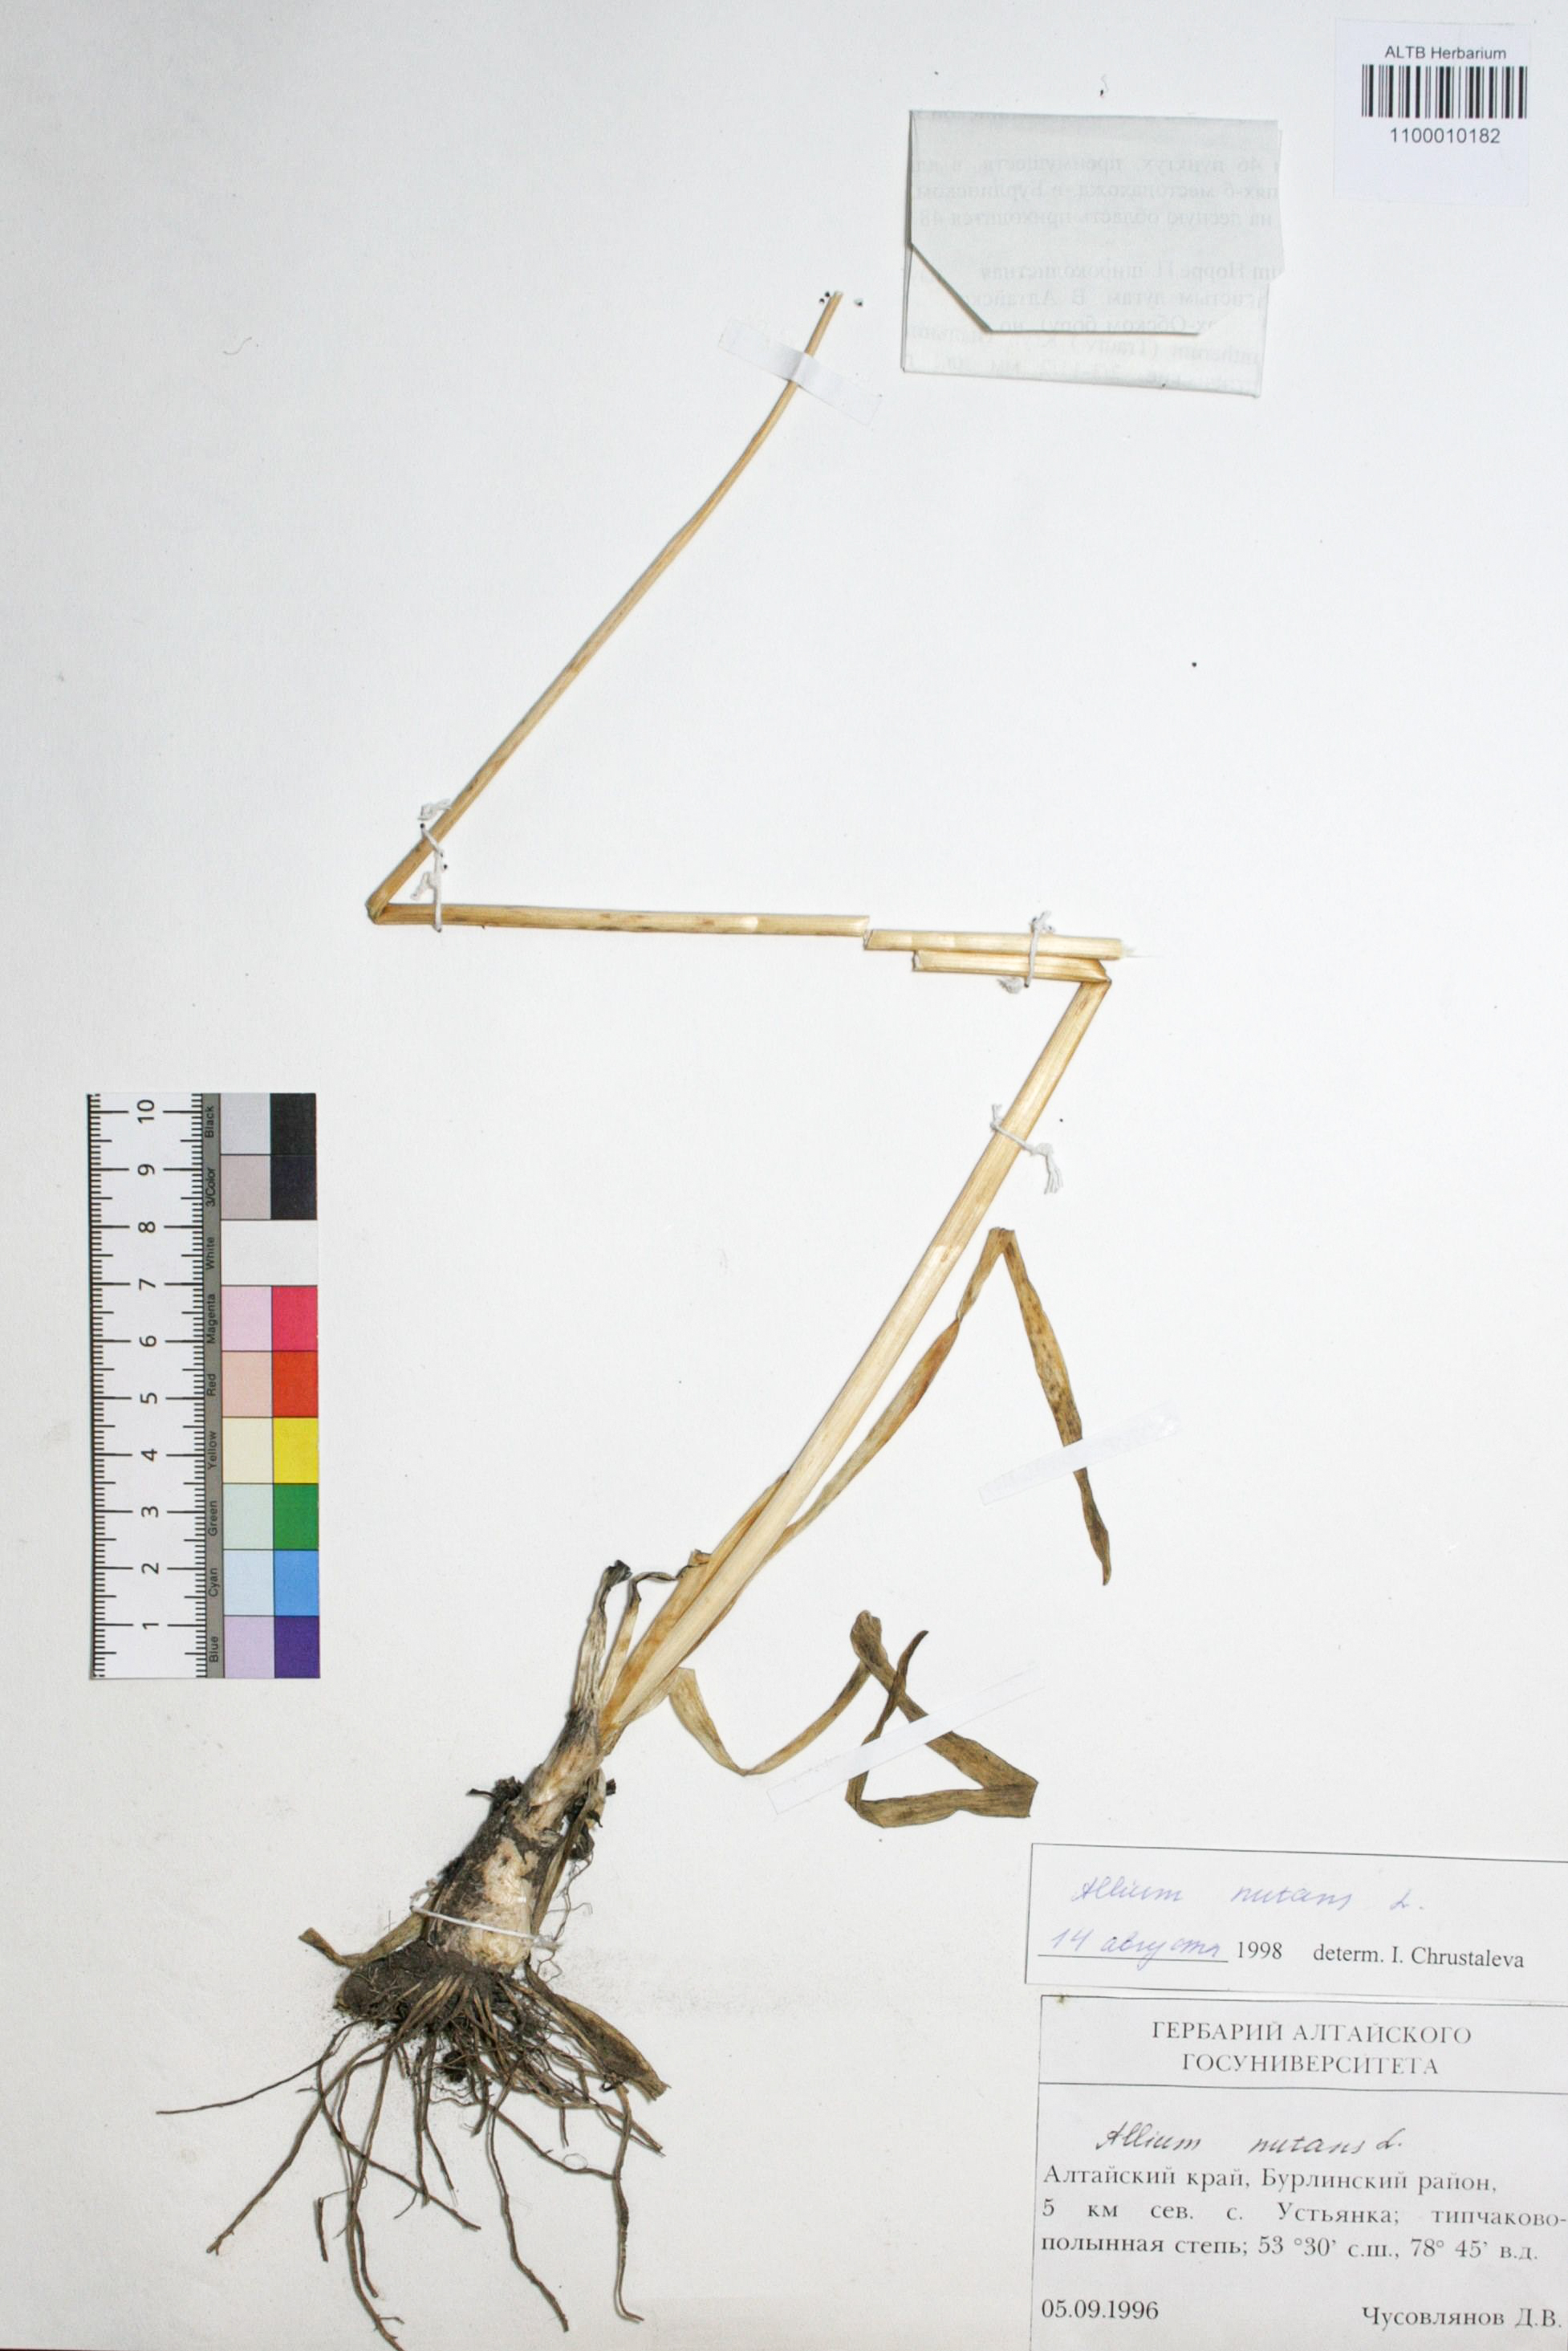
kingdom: Plantae
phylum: Tracheophyta
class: Liliopsida
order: Asparagales
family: Amaryllidaceae
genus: Allium
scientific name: Allium nutans
